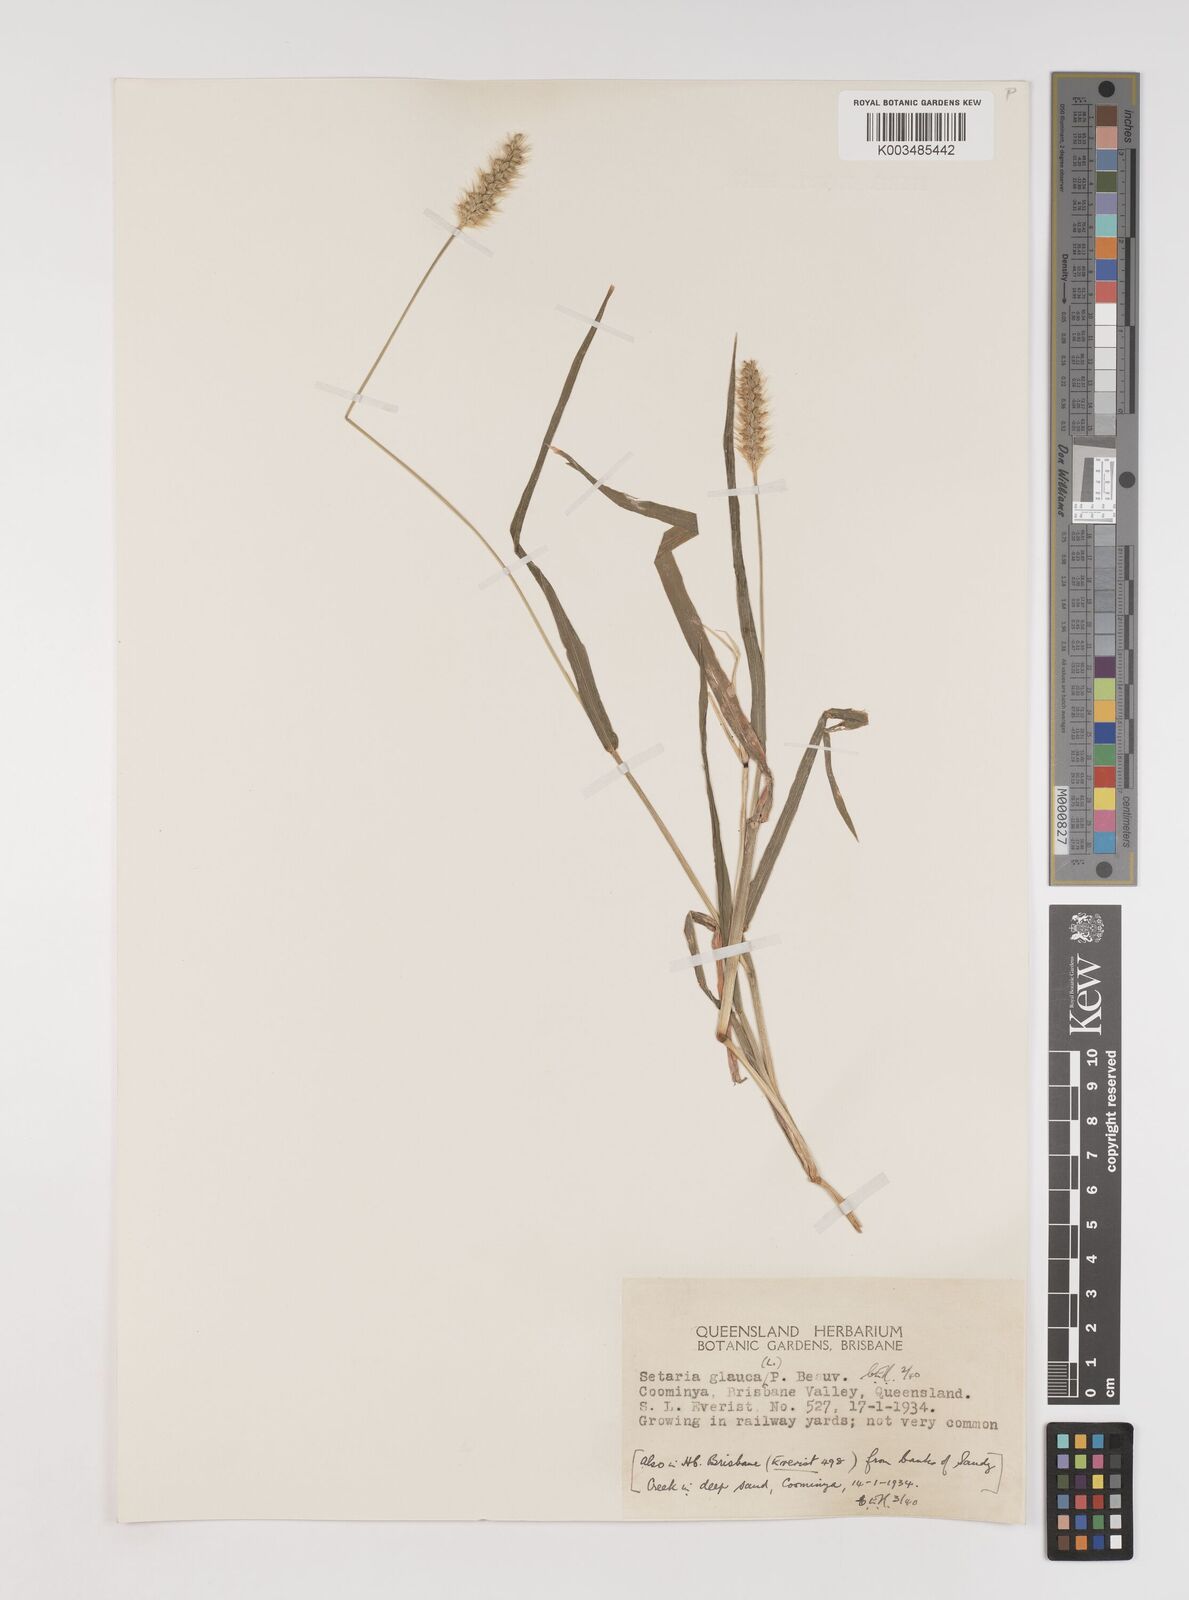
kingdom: Plantae
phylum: Tracheophyta
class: Liliopsida
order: Poales
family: Poaceae
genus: Setaria
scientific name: Setaria pumila
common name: Yellow bristle-grass
